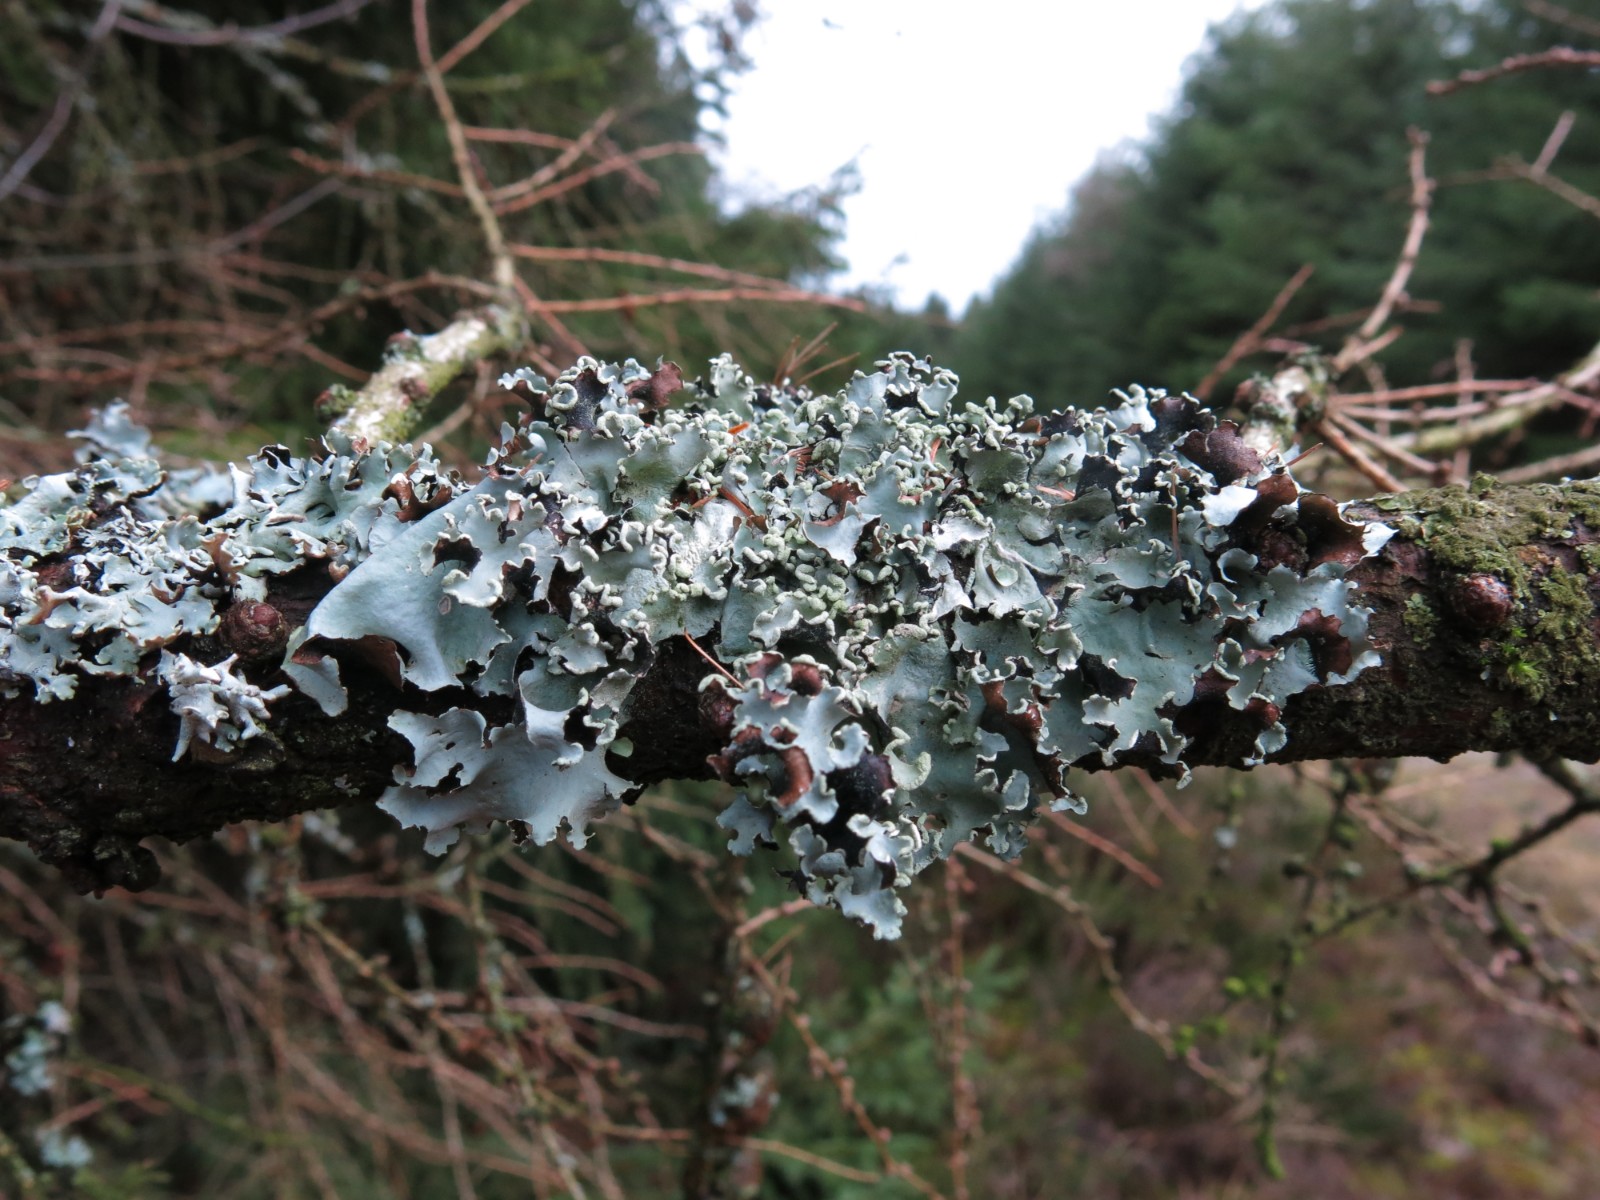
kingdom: Fungi
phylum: Ascomycota
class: Lecanoromycetes
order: Lecanorales
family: Parmeliaceae
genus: Parmotrema
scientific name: Parmotrema perlatum
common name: trådet skållav
